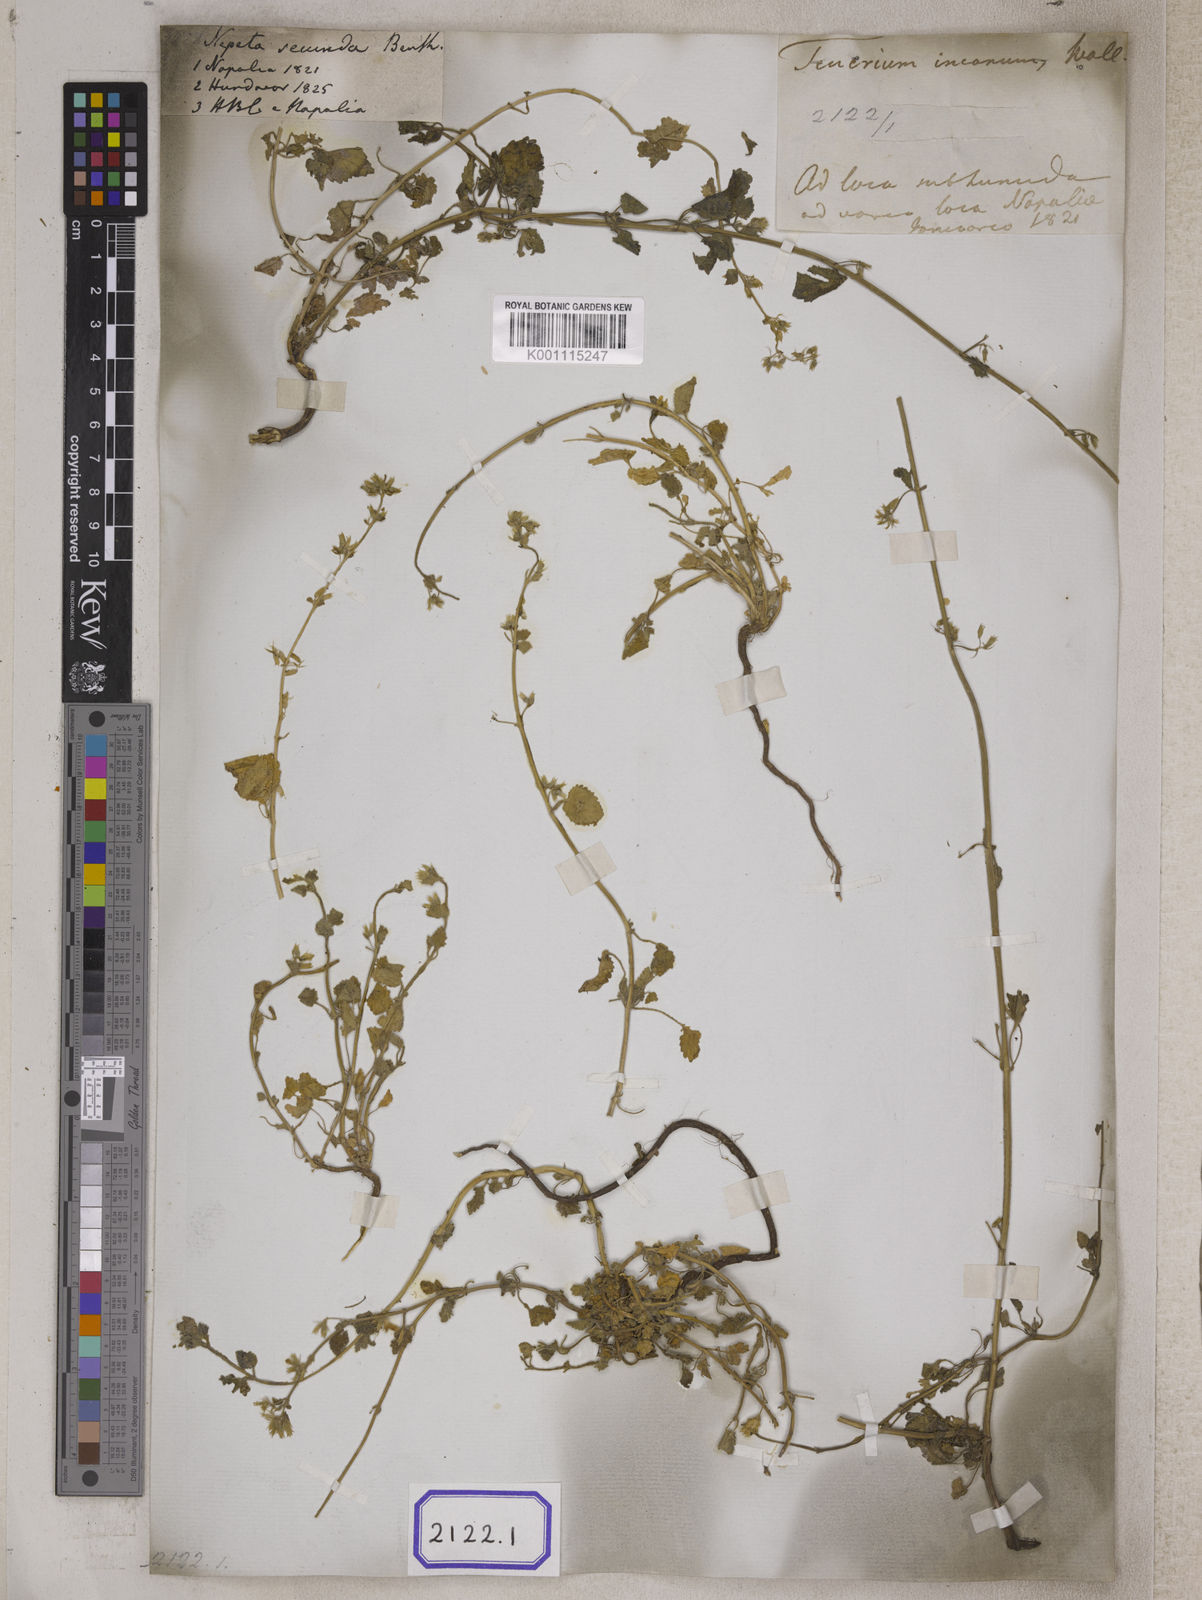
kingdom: Plantae
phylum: Tracheophyta
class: Magnoliopsida
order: Lamiales
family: Lamiaceae
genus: Nepeta
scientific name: Nepeta
